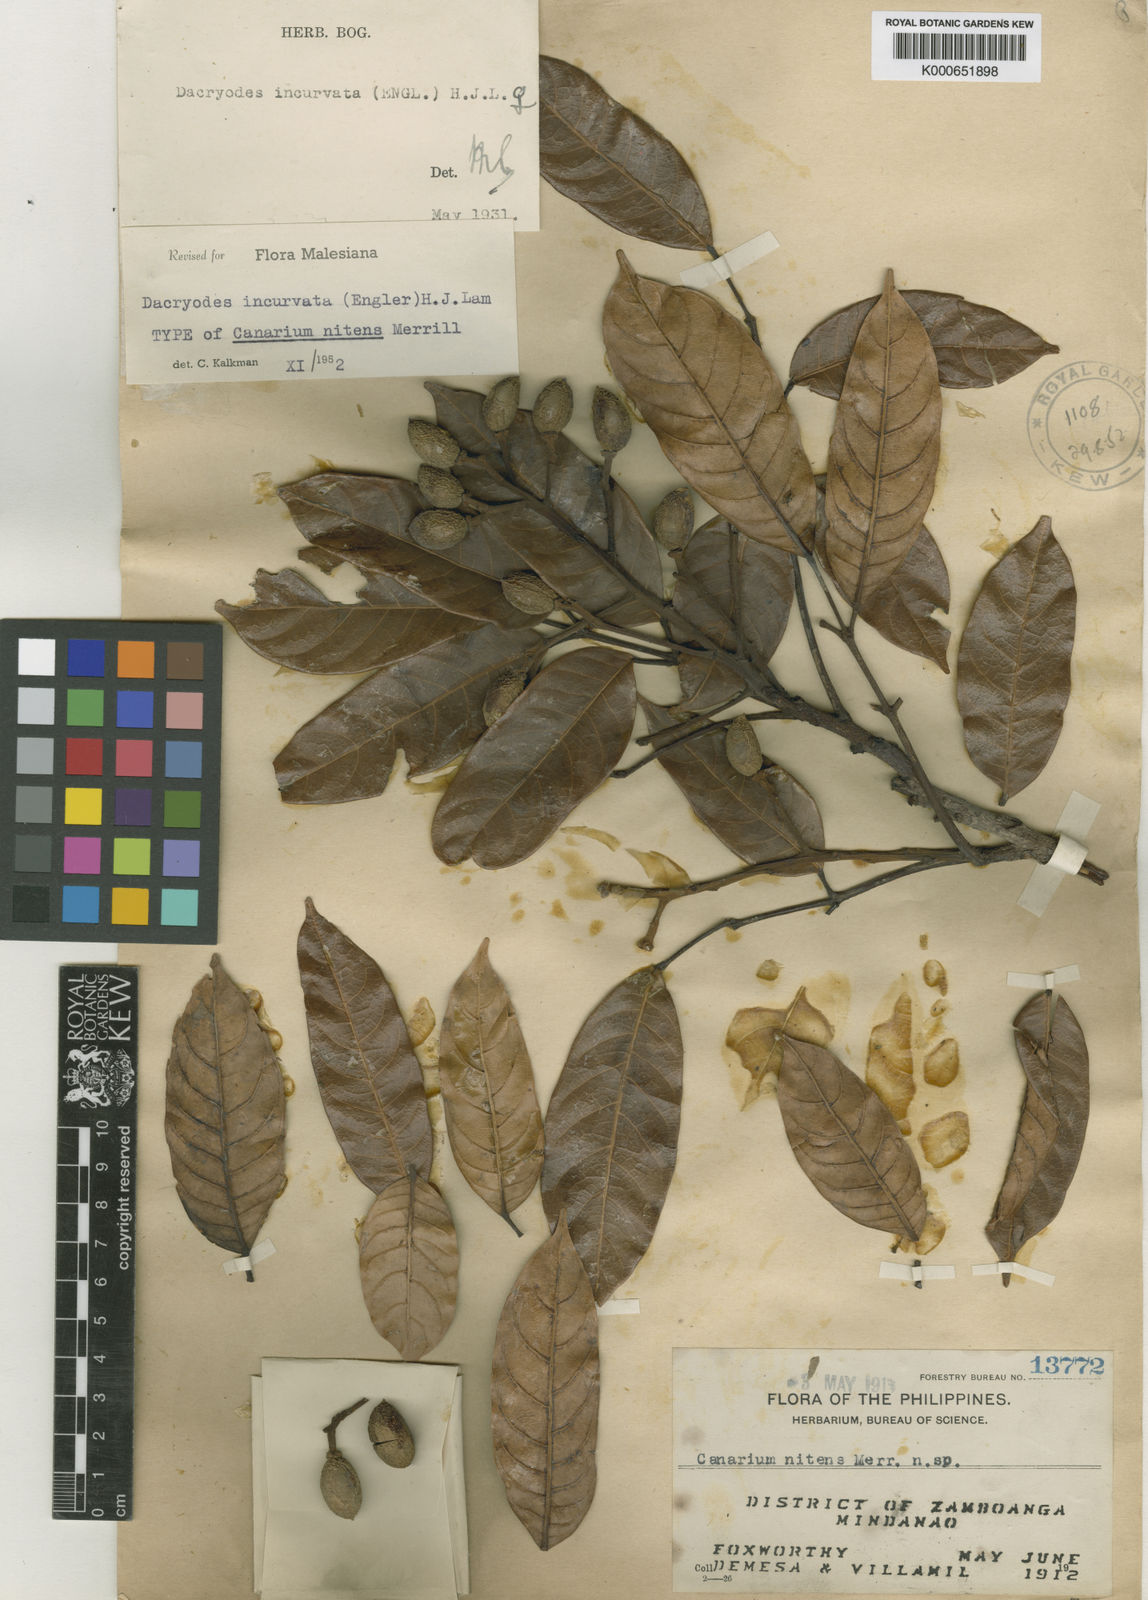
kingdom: Plantae
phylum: Tracheophyta
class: Magnoliopsida
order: Sapindales
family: Burseraceae
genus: Dacryodes
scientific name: Dacryodes incurvata
